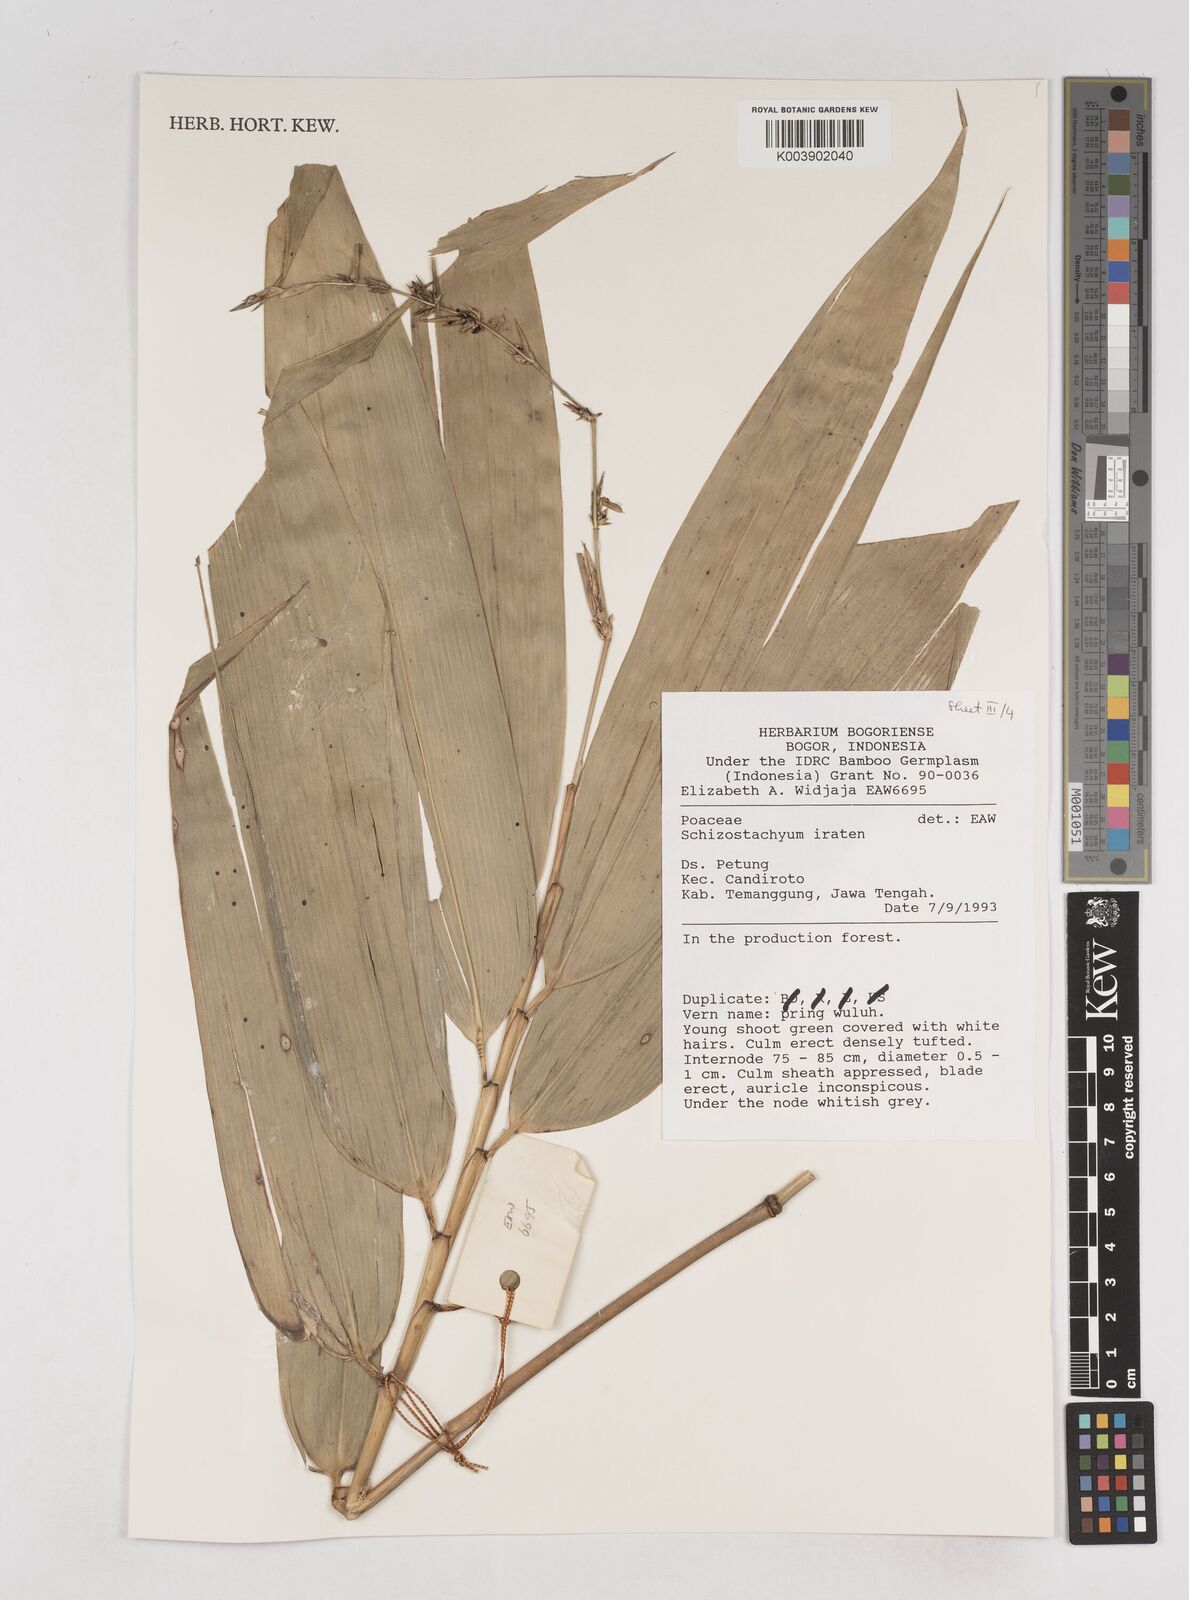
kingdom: Plantae
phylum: Tracheophyta
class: Liliopsida
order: Poales
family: Poaceae
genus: Schizostachyum
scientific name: Schizostachyum iraten
